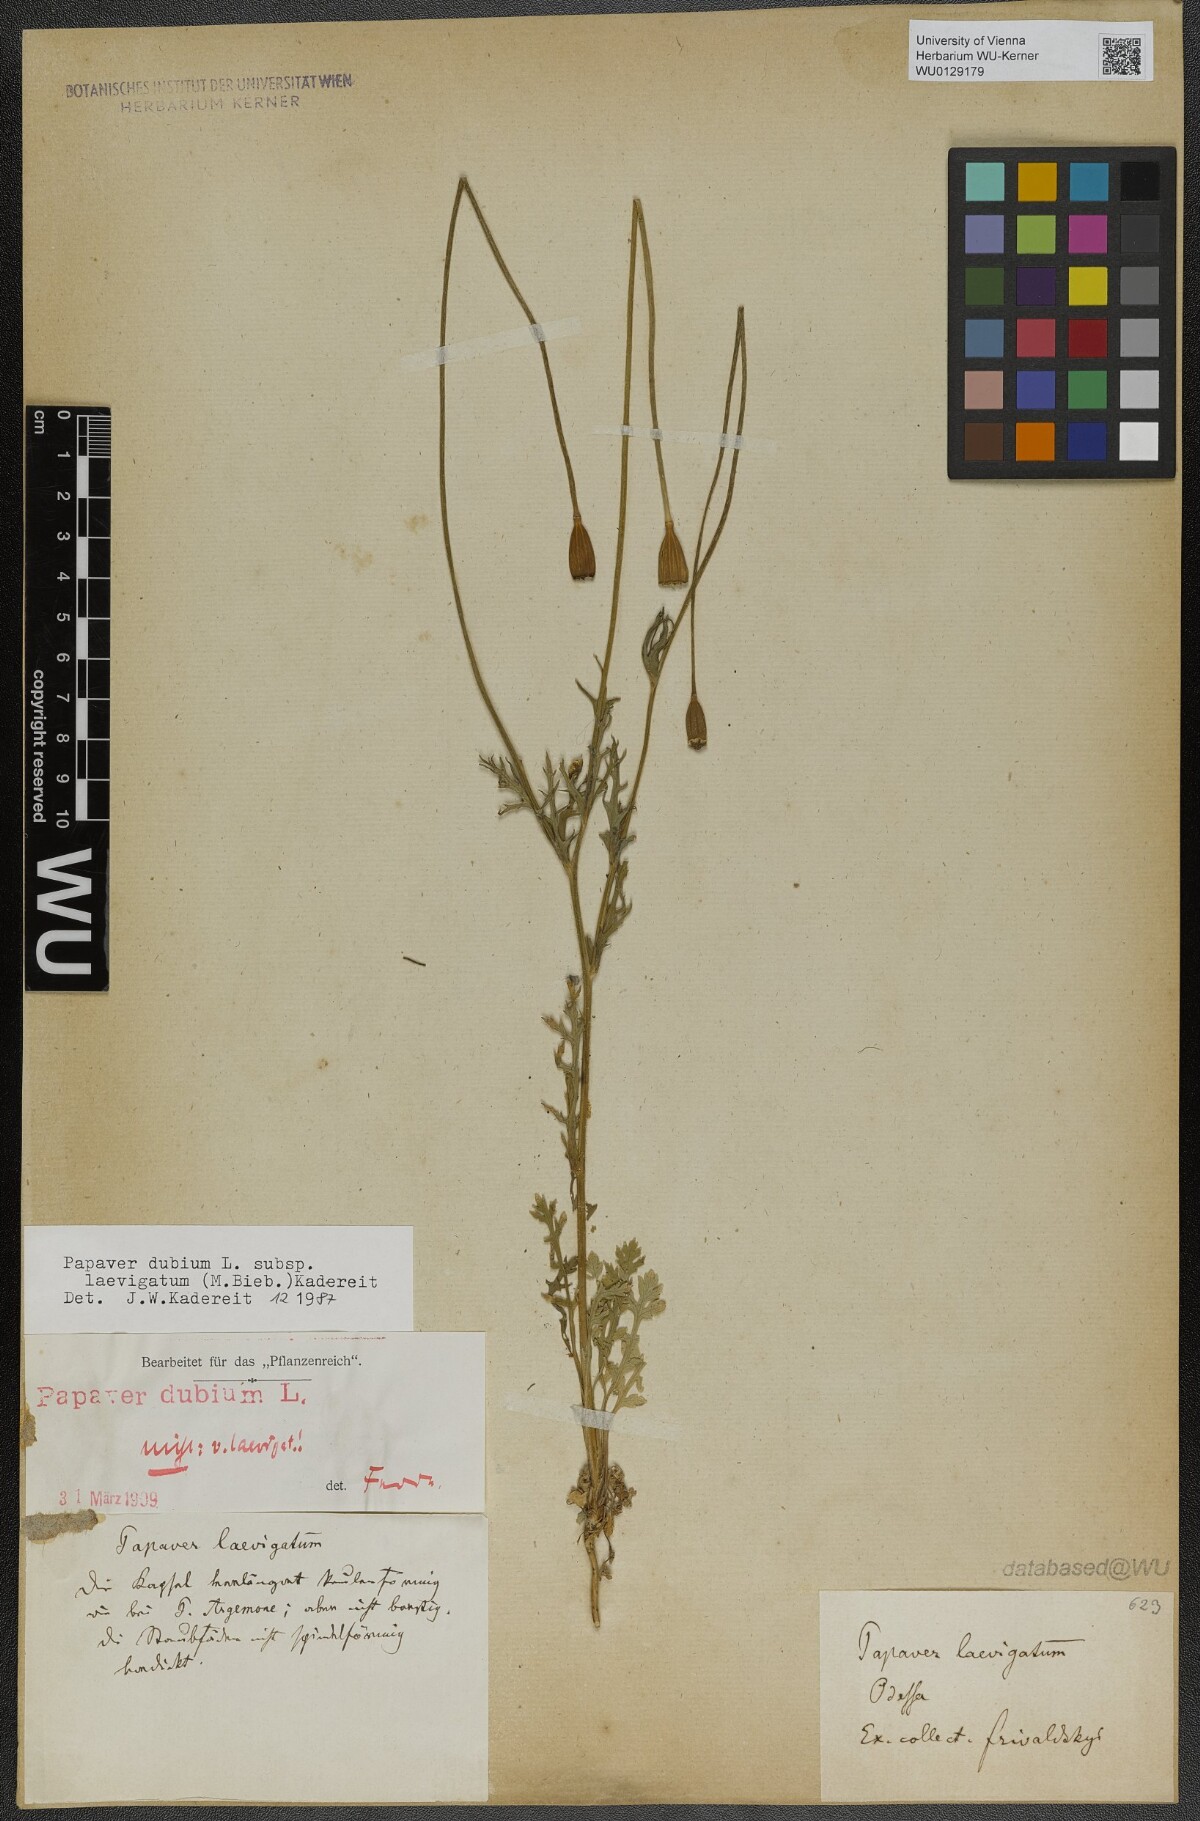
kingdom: Plantae
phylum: Tracheophyta
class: Magnoliopsida
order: Ranunculales
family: Papaveraceae
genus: Papaver
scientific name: Papaver laevigatum
